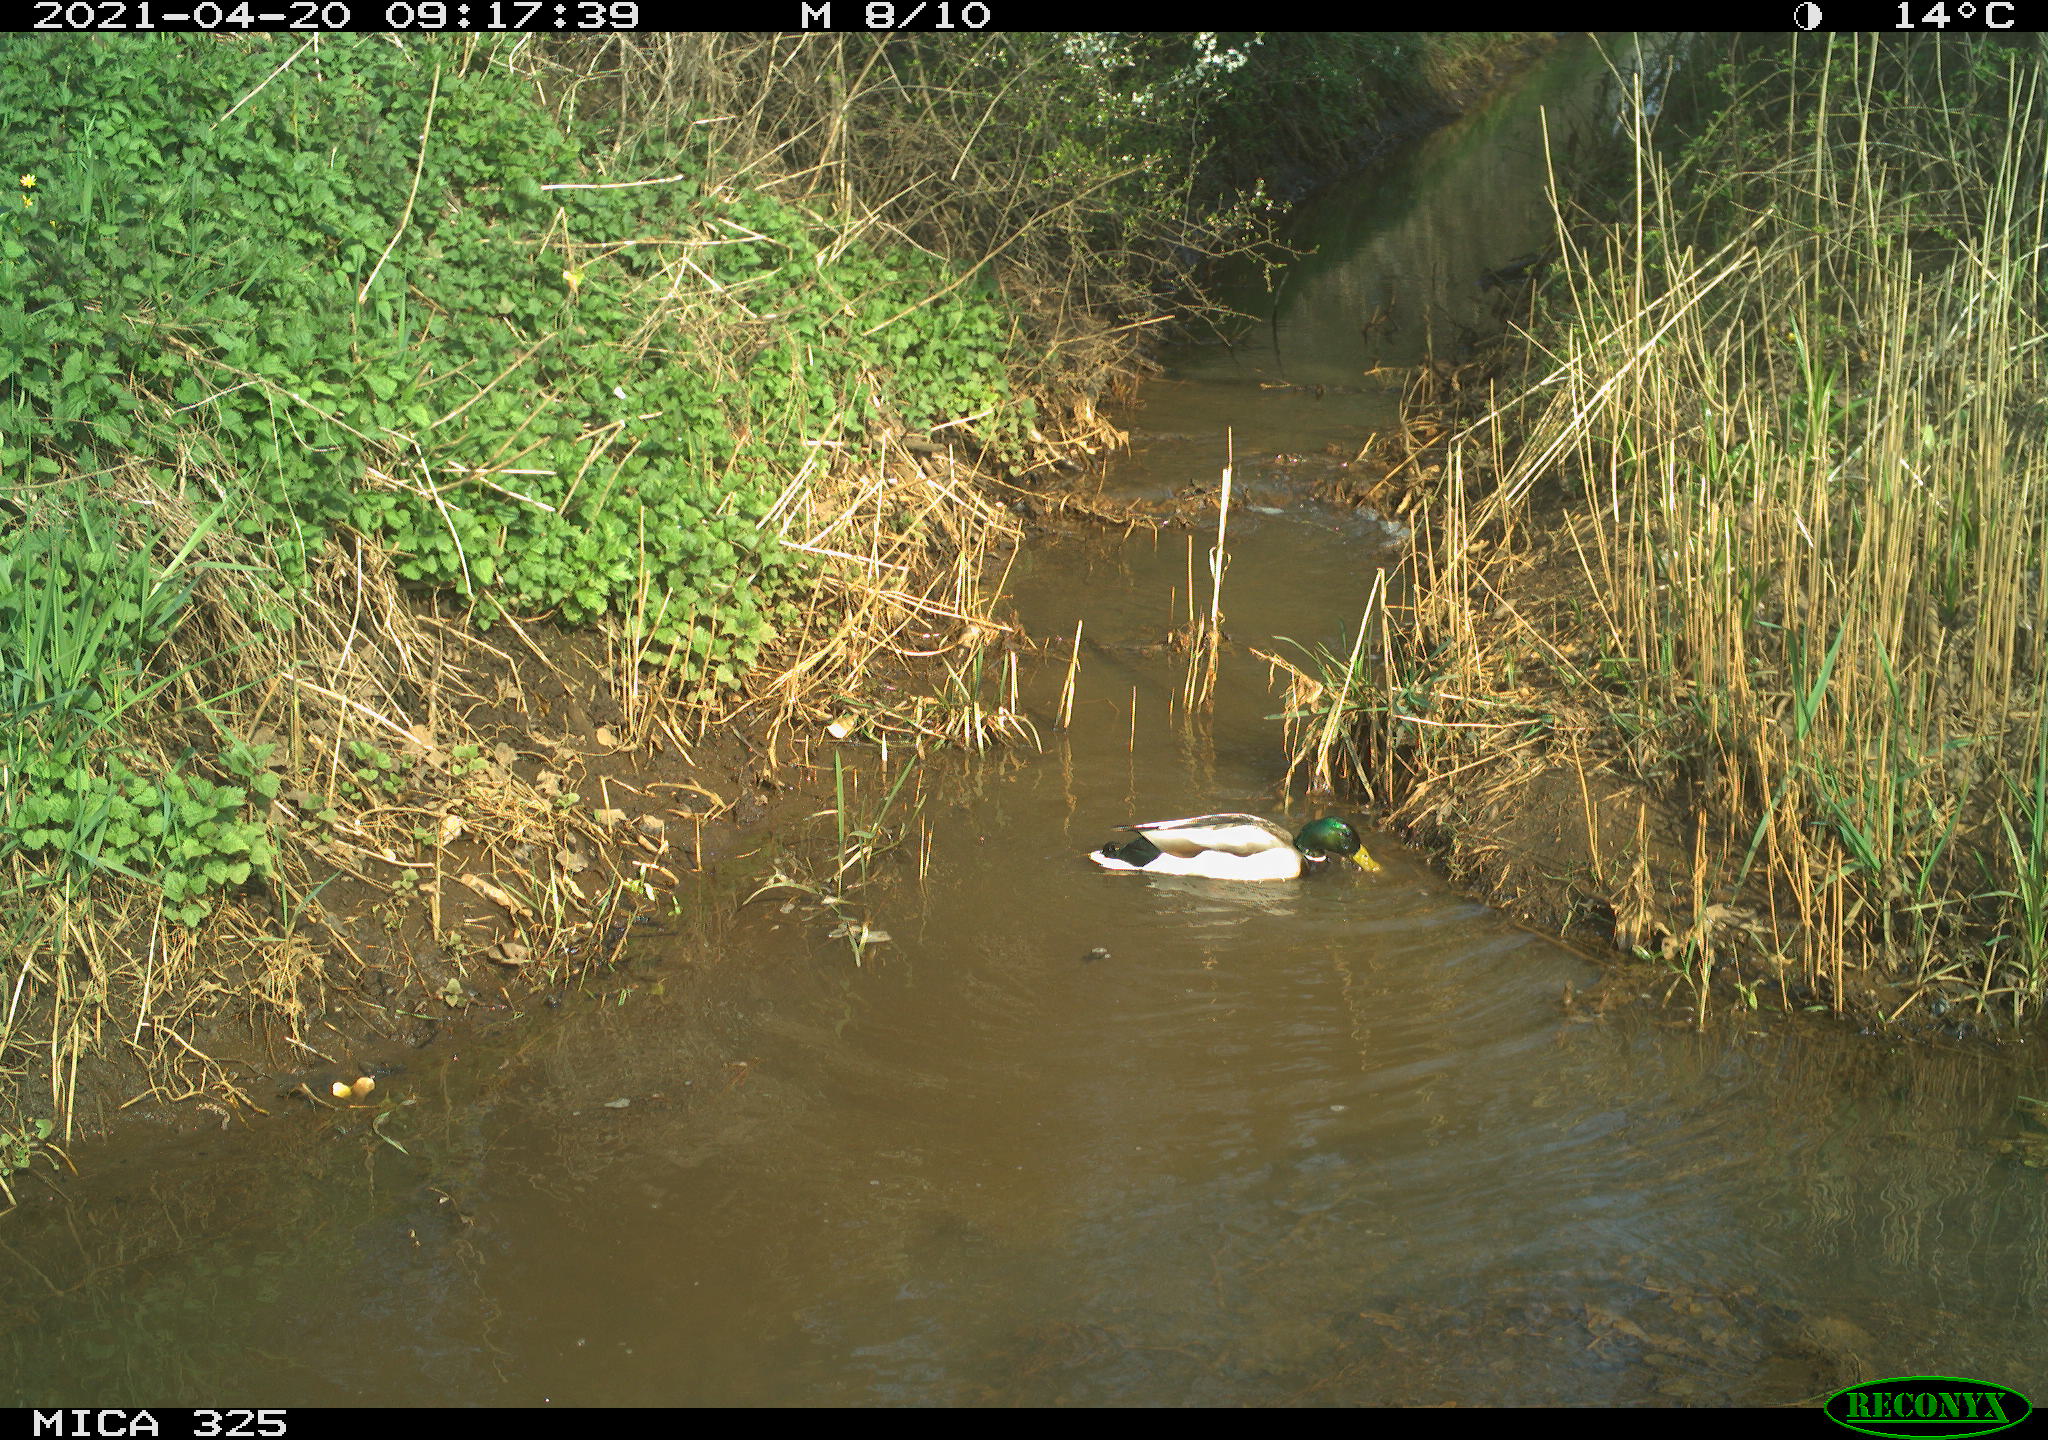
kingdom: Animalia
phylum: Chordata
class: Aves
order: Anseriformes
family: Anatidae
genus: Anas
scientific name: Anas platyrhynchos
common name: Mallard
